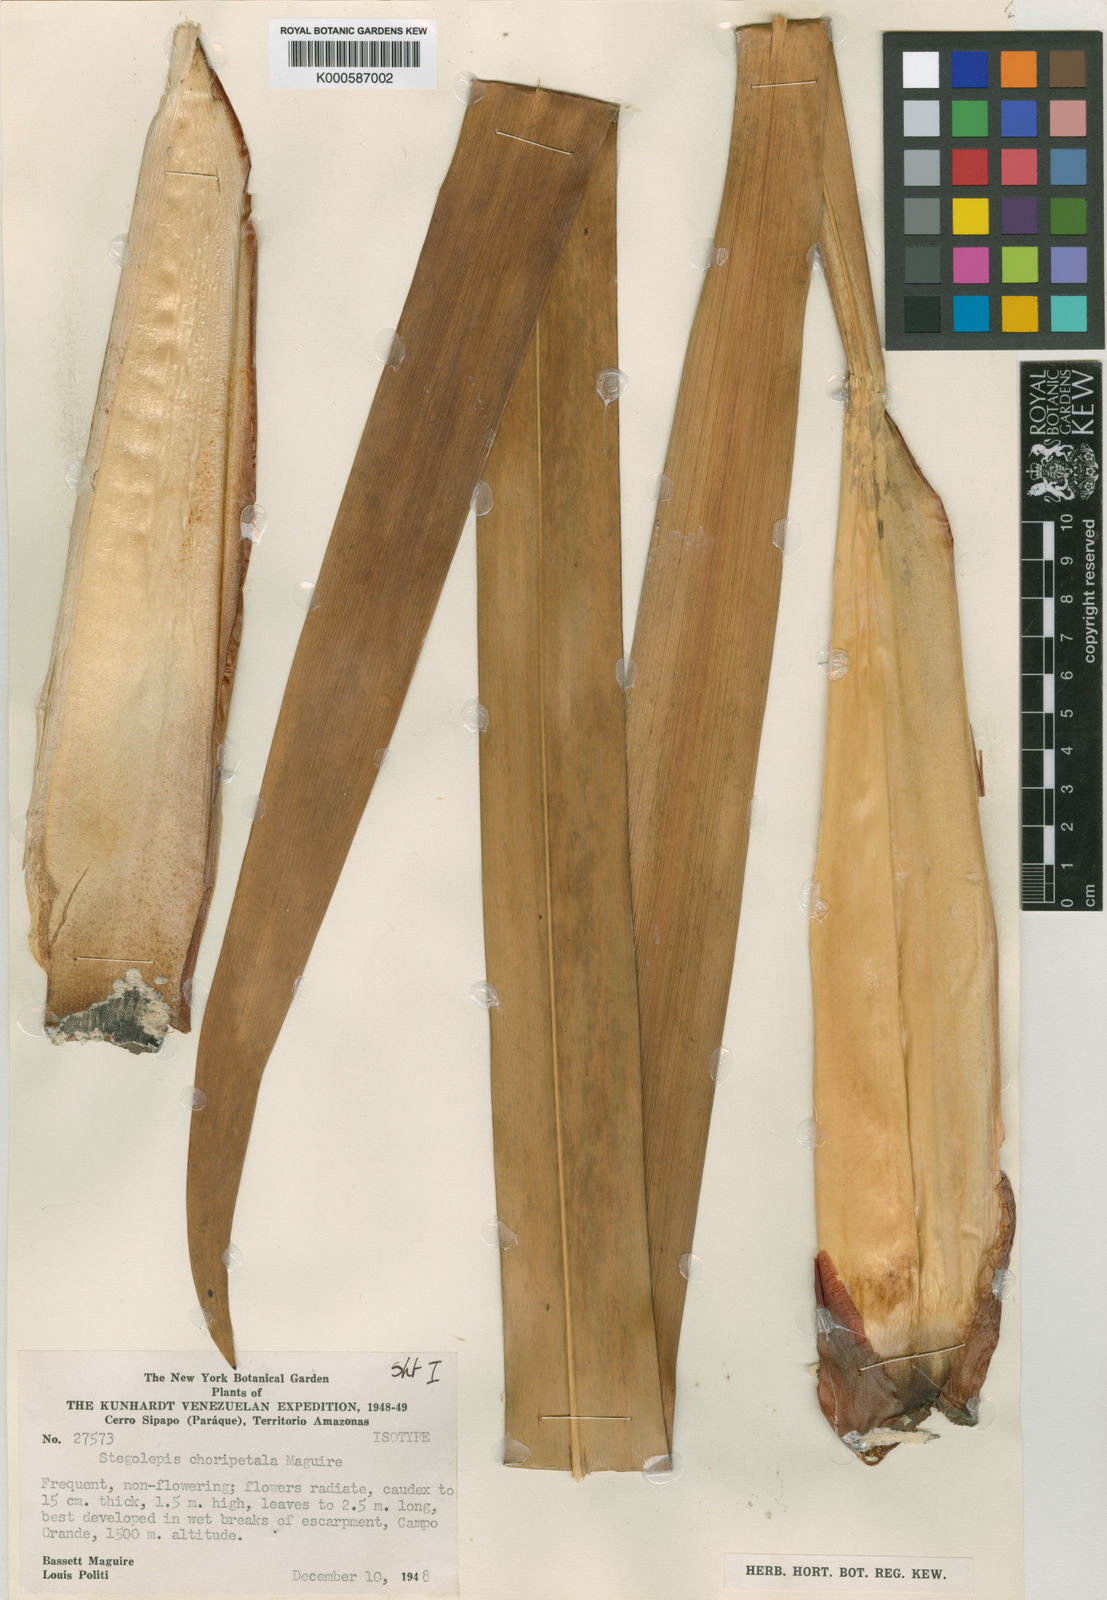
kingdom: Plantae
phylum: Tracheophyta
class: Liliopsida
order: Poales
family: Rapateaceae
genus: Stegolepis
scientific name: Stegolepis choripetala
